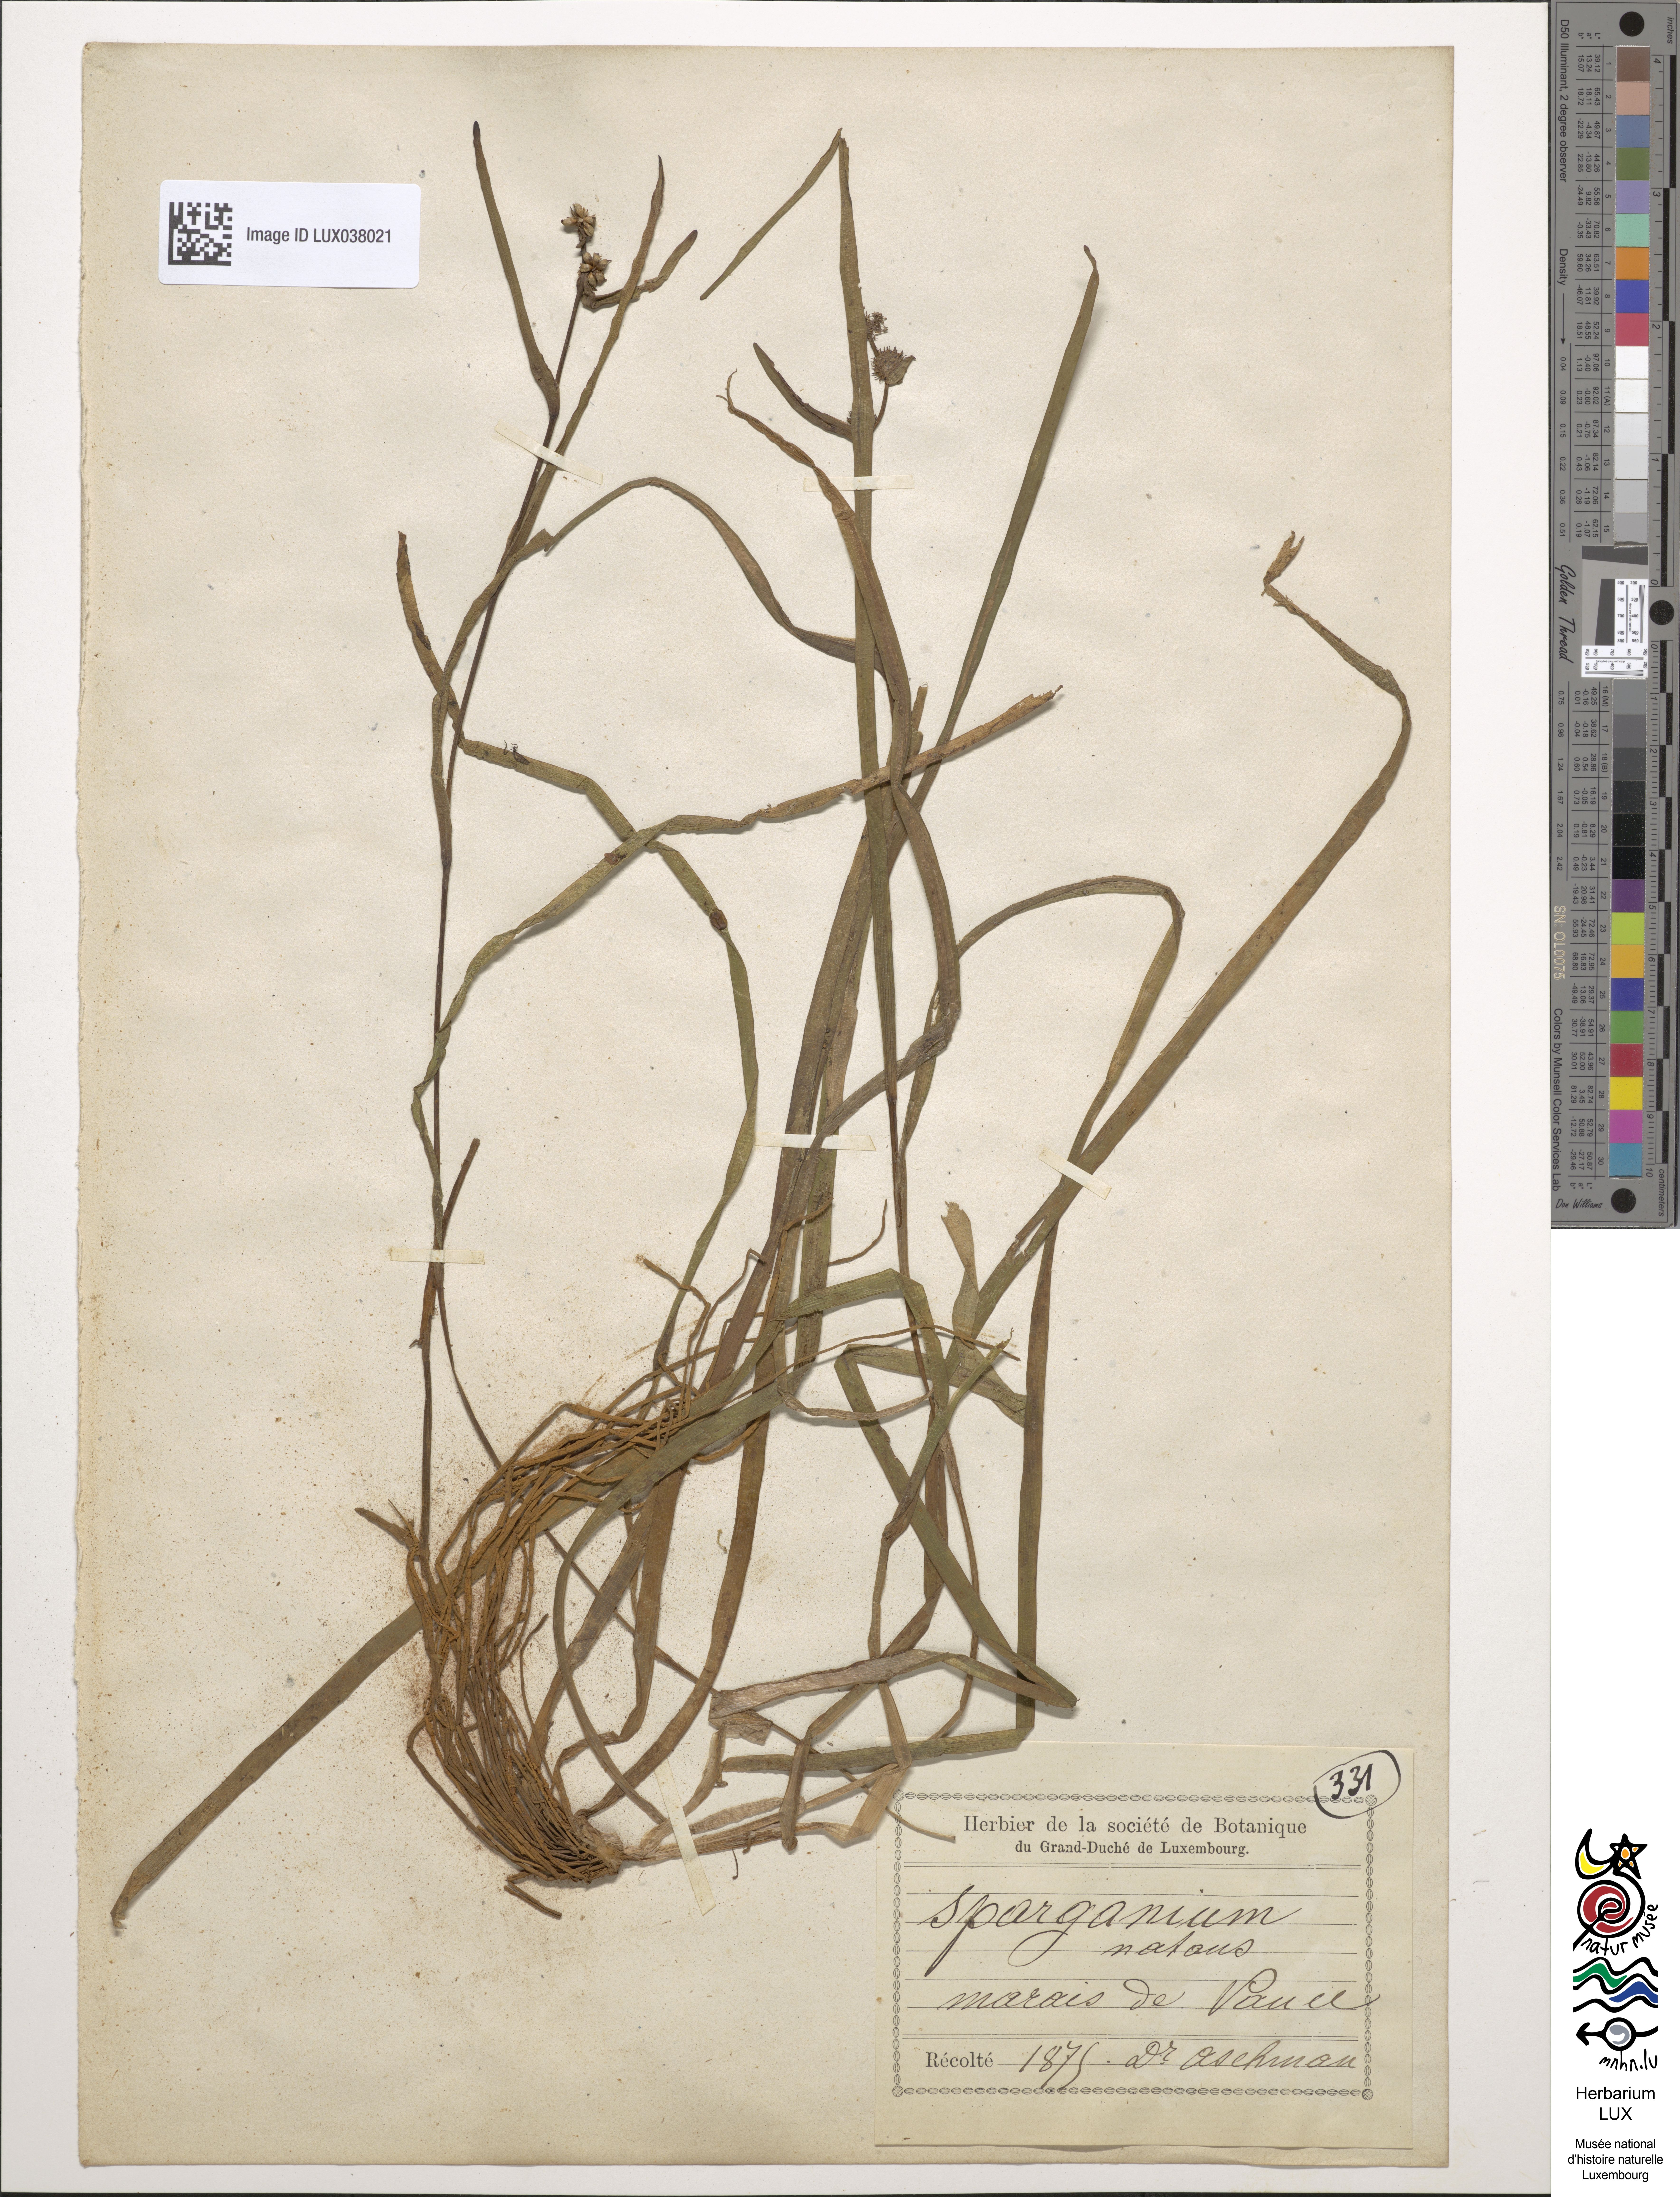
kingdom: Plantae
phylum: Tracheophyta
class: Liliopsida
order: Poales
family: Typhaceae
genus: Sparganium
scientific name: Sparganium natans
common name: Least bur-reed
